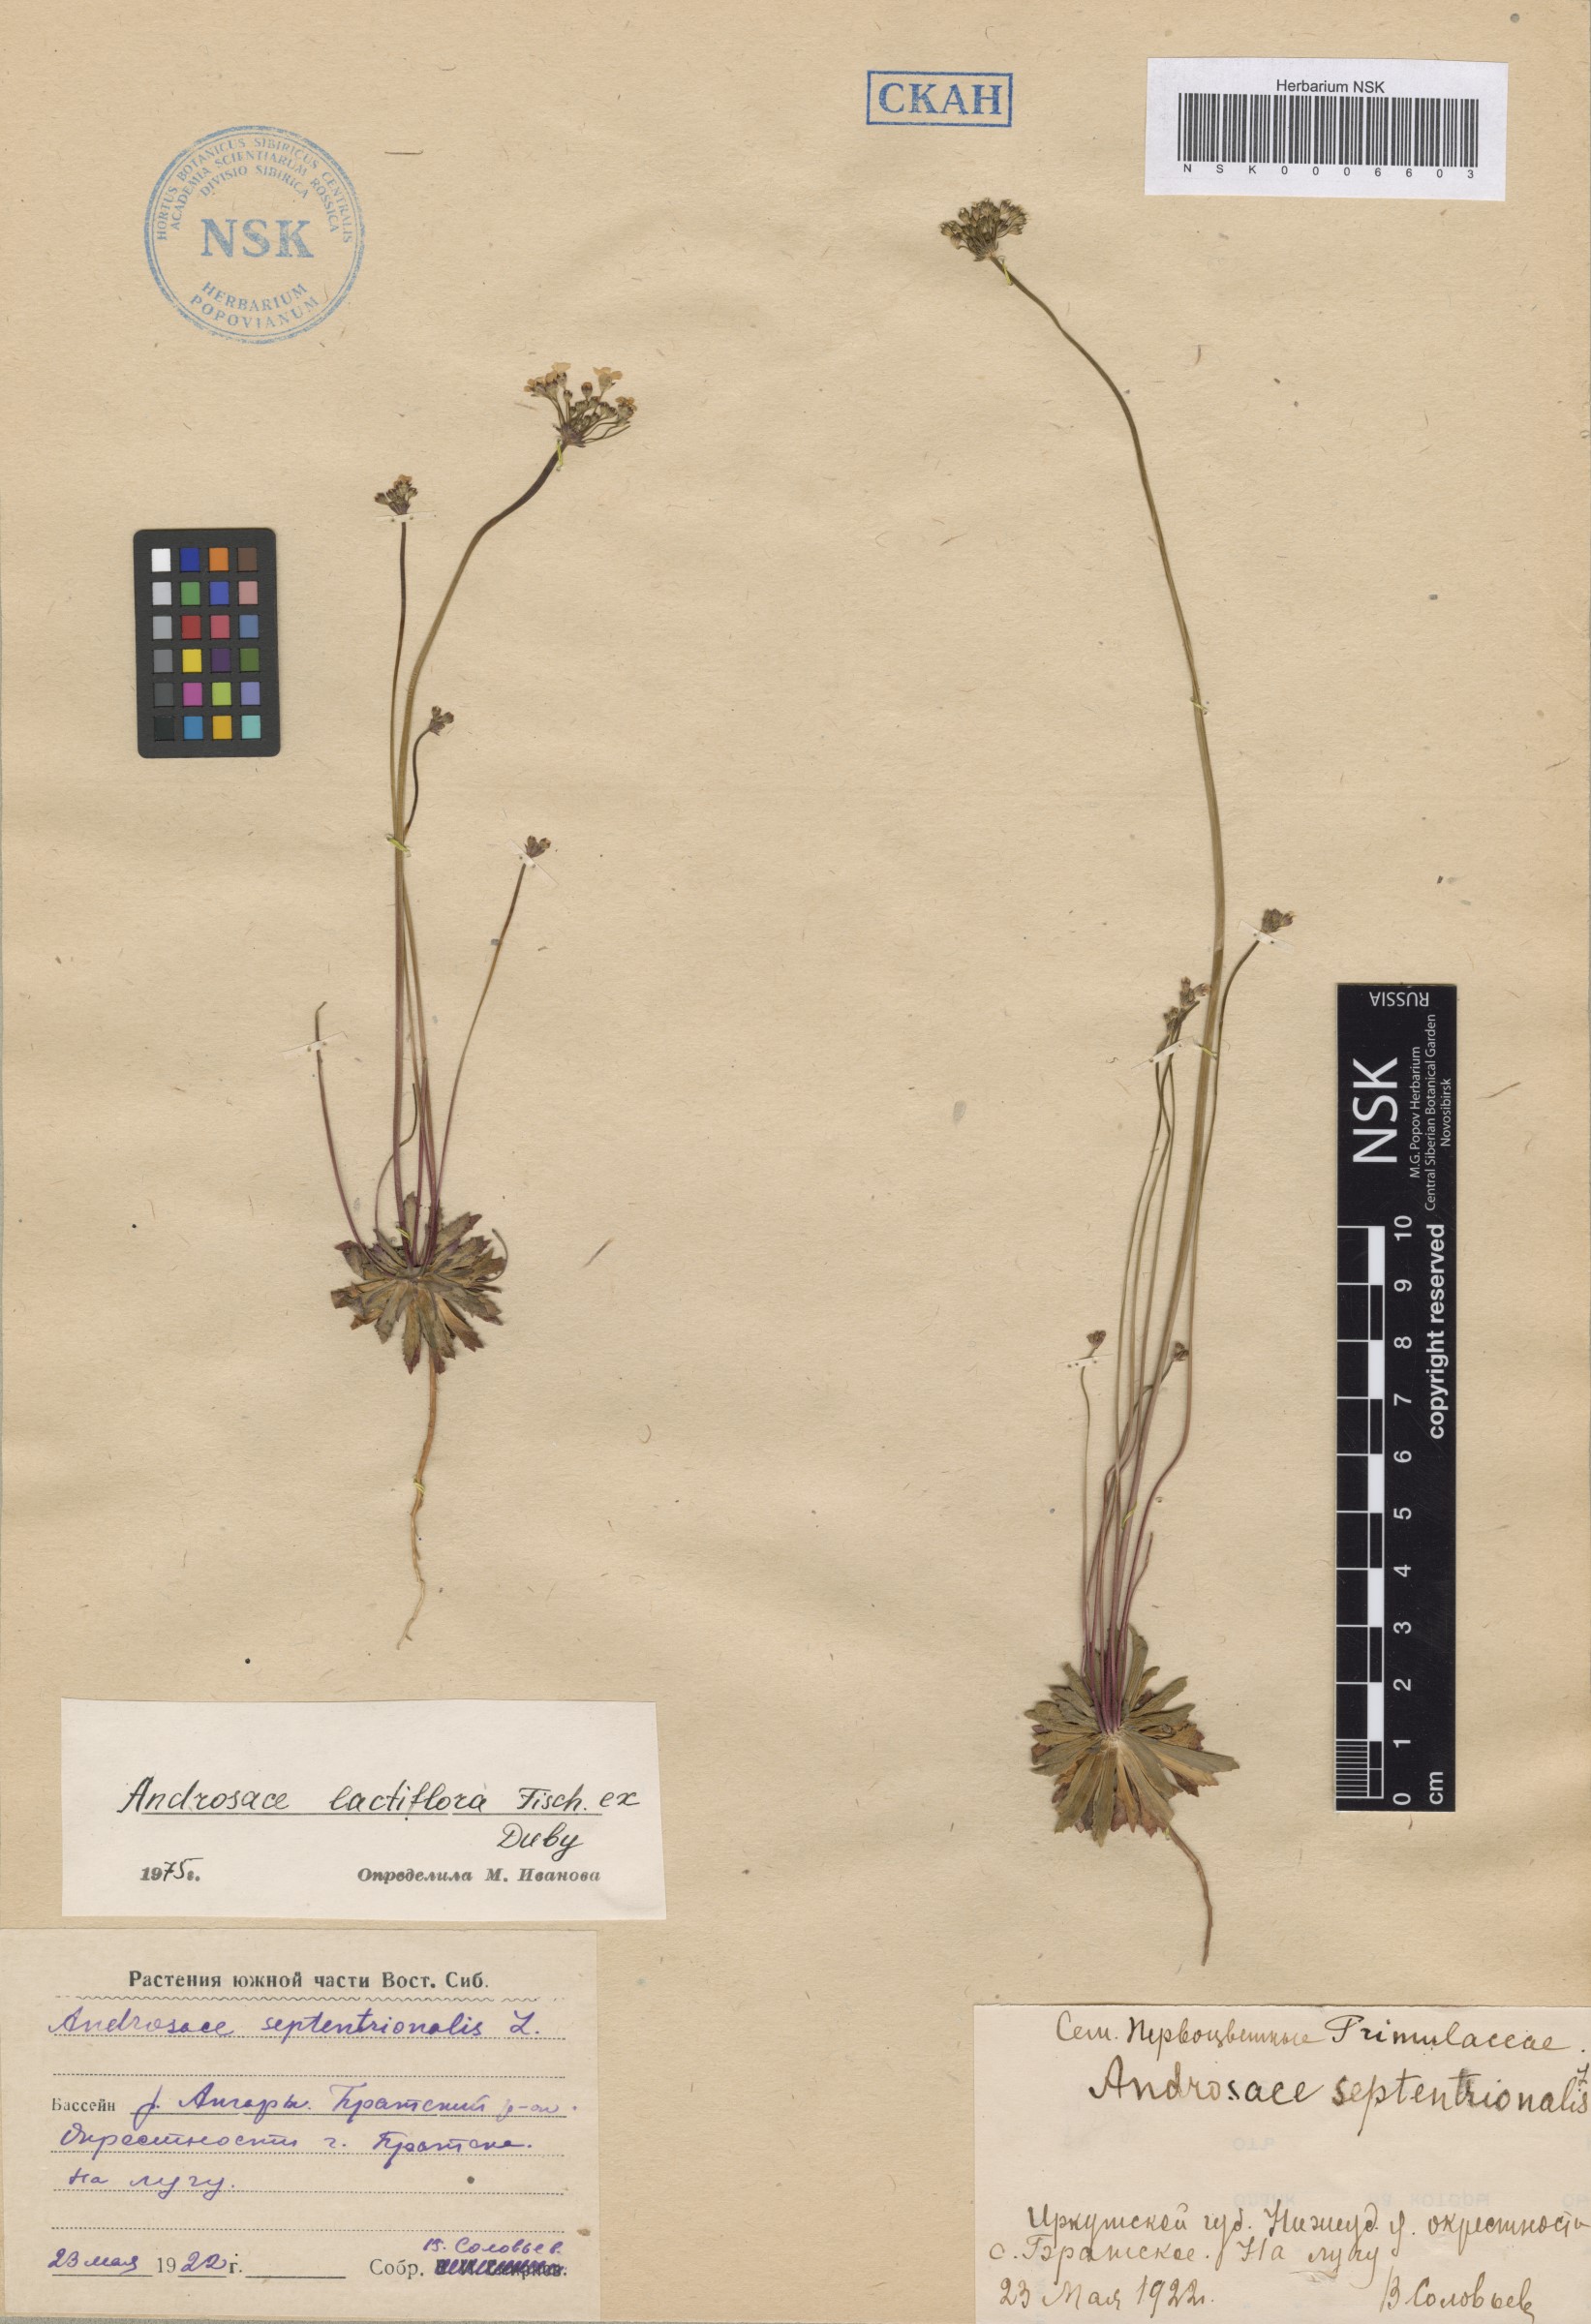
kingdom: Plantae
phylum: Tracheophyta
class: Magnoliopsida
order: Ericales
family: Primulaceae
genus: Androsace
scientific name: Androsace lactiflora
